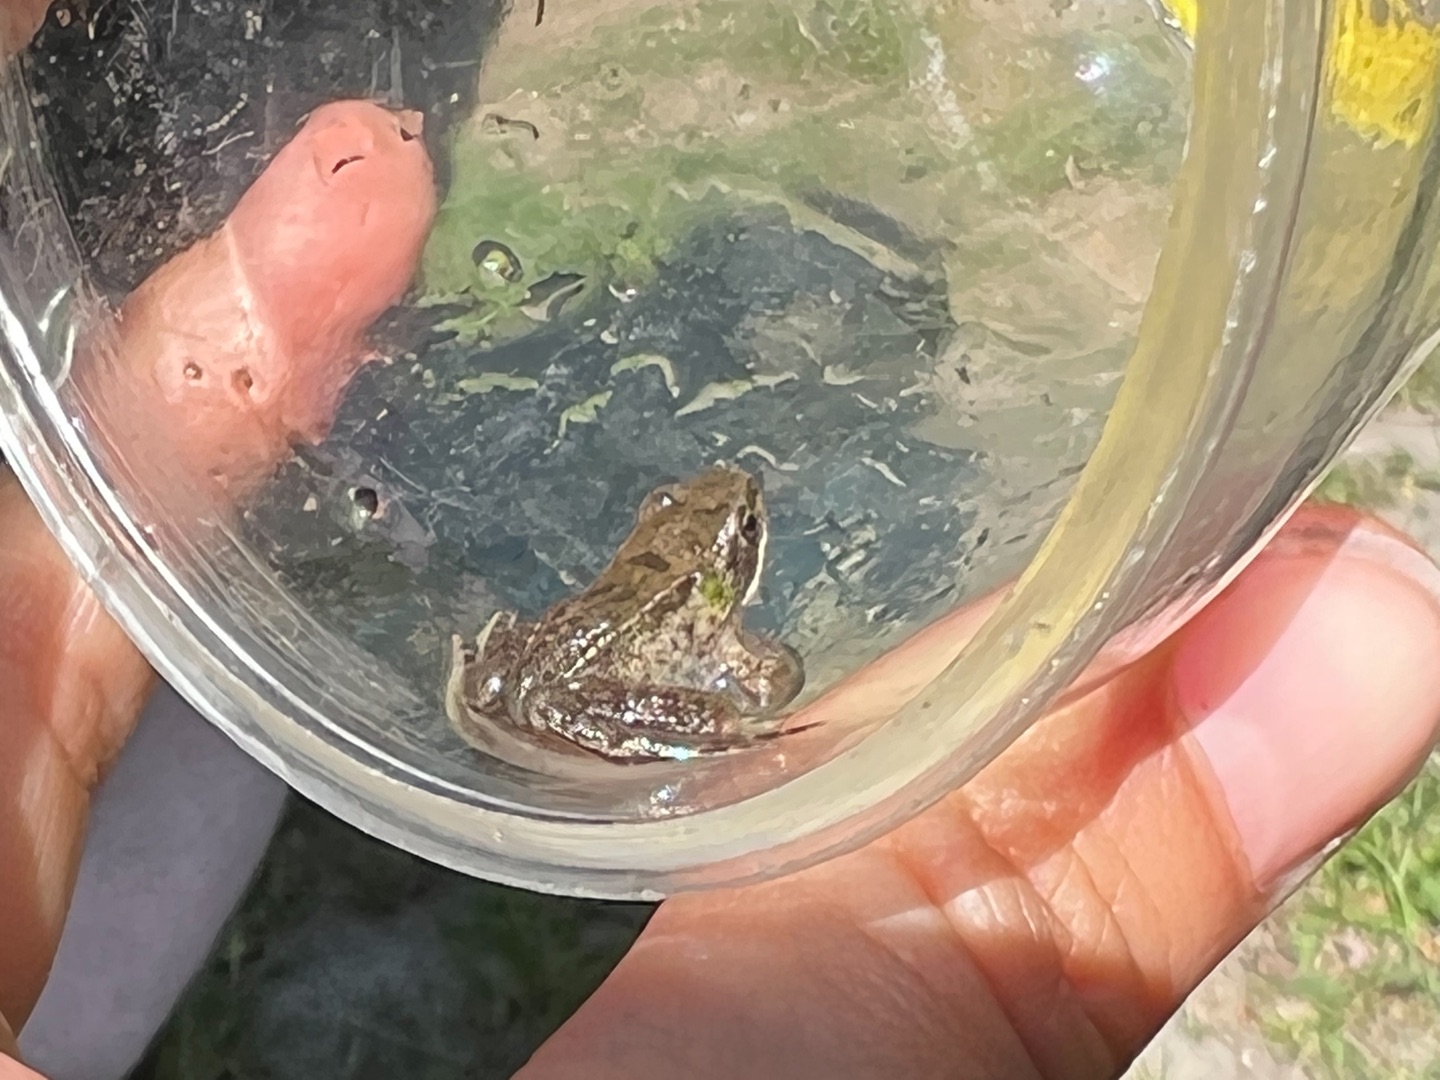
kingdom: Animalia
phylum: Chordata
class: Amphibia
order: Anura
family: Ranidae
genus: Rana
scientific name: Rana temporaria
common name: Butsnudet frø
